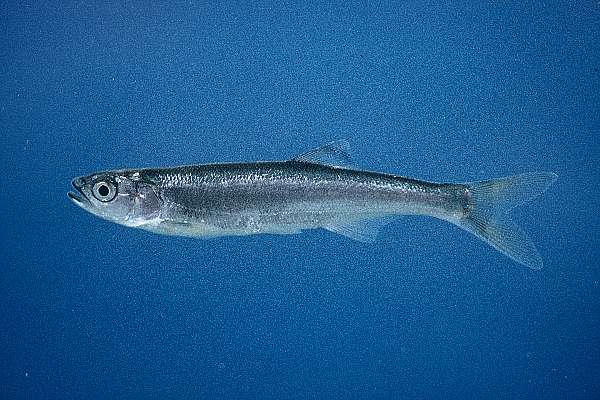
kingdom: Animalia
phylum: Chordata
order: Cypriniformes
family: Cyprinidae
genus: Opsaridium
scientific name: Opsaridium microlepis
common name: Lake salmon
